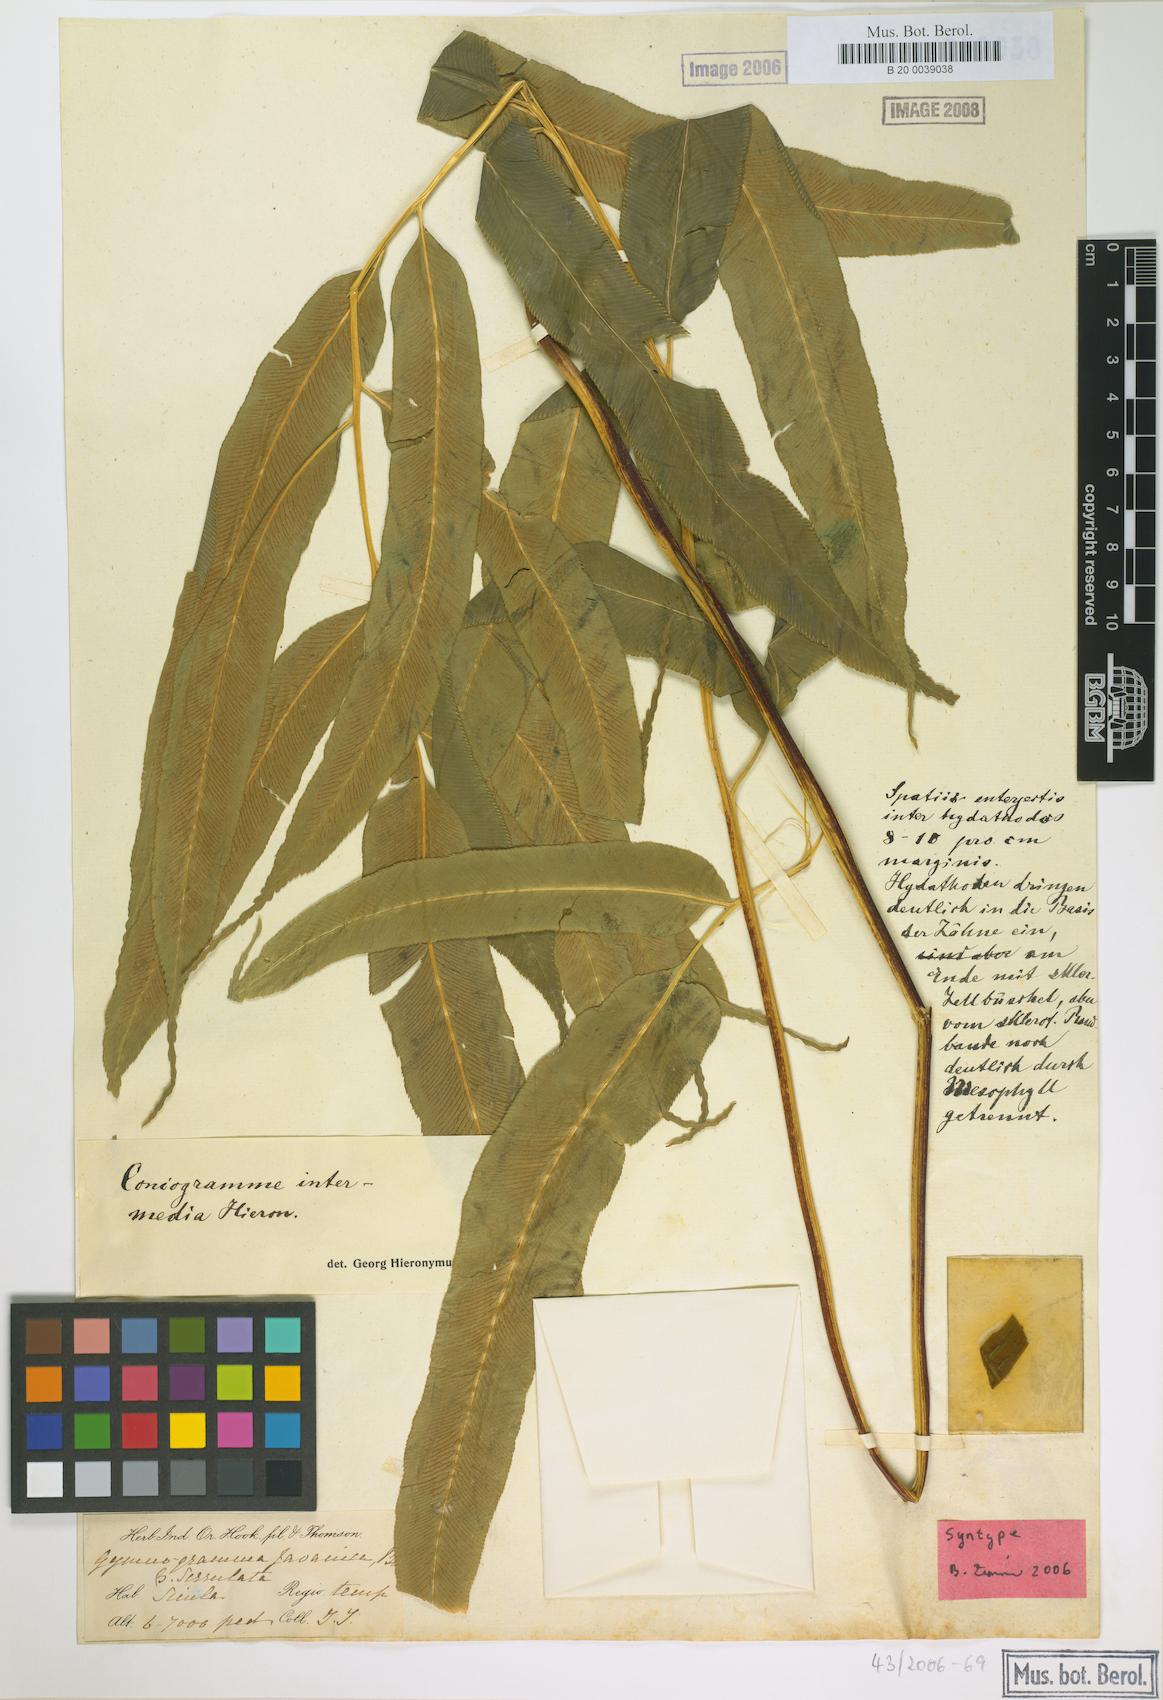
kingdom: Plantae
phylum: Tracheophyta
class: Polypodiopsida
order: Polypodiales
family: Pteridaceae
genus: Coniogramme
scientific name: Coniogramme intermedia
